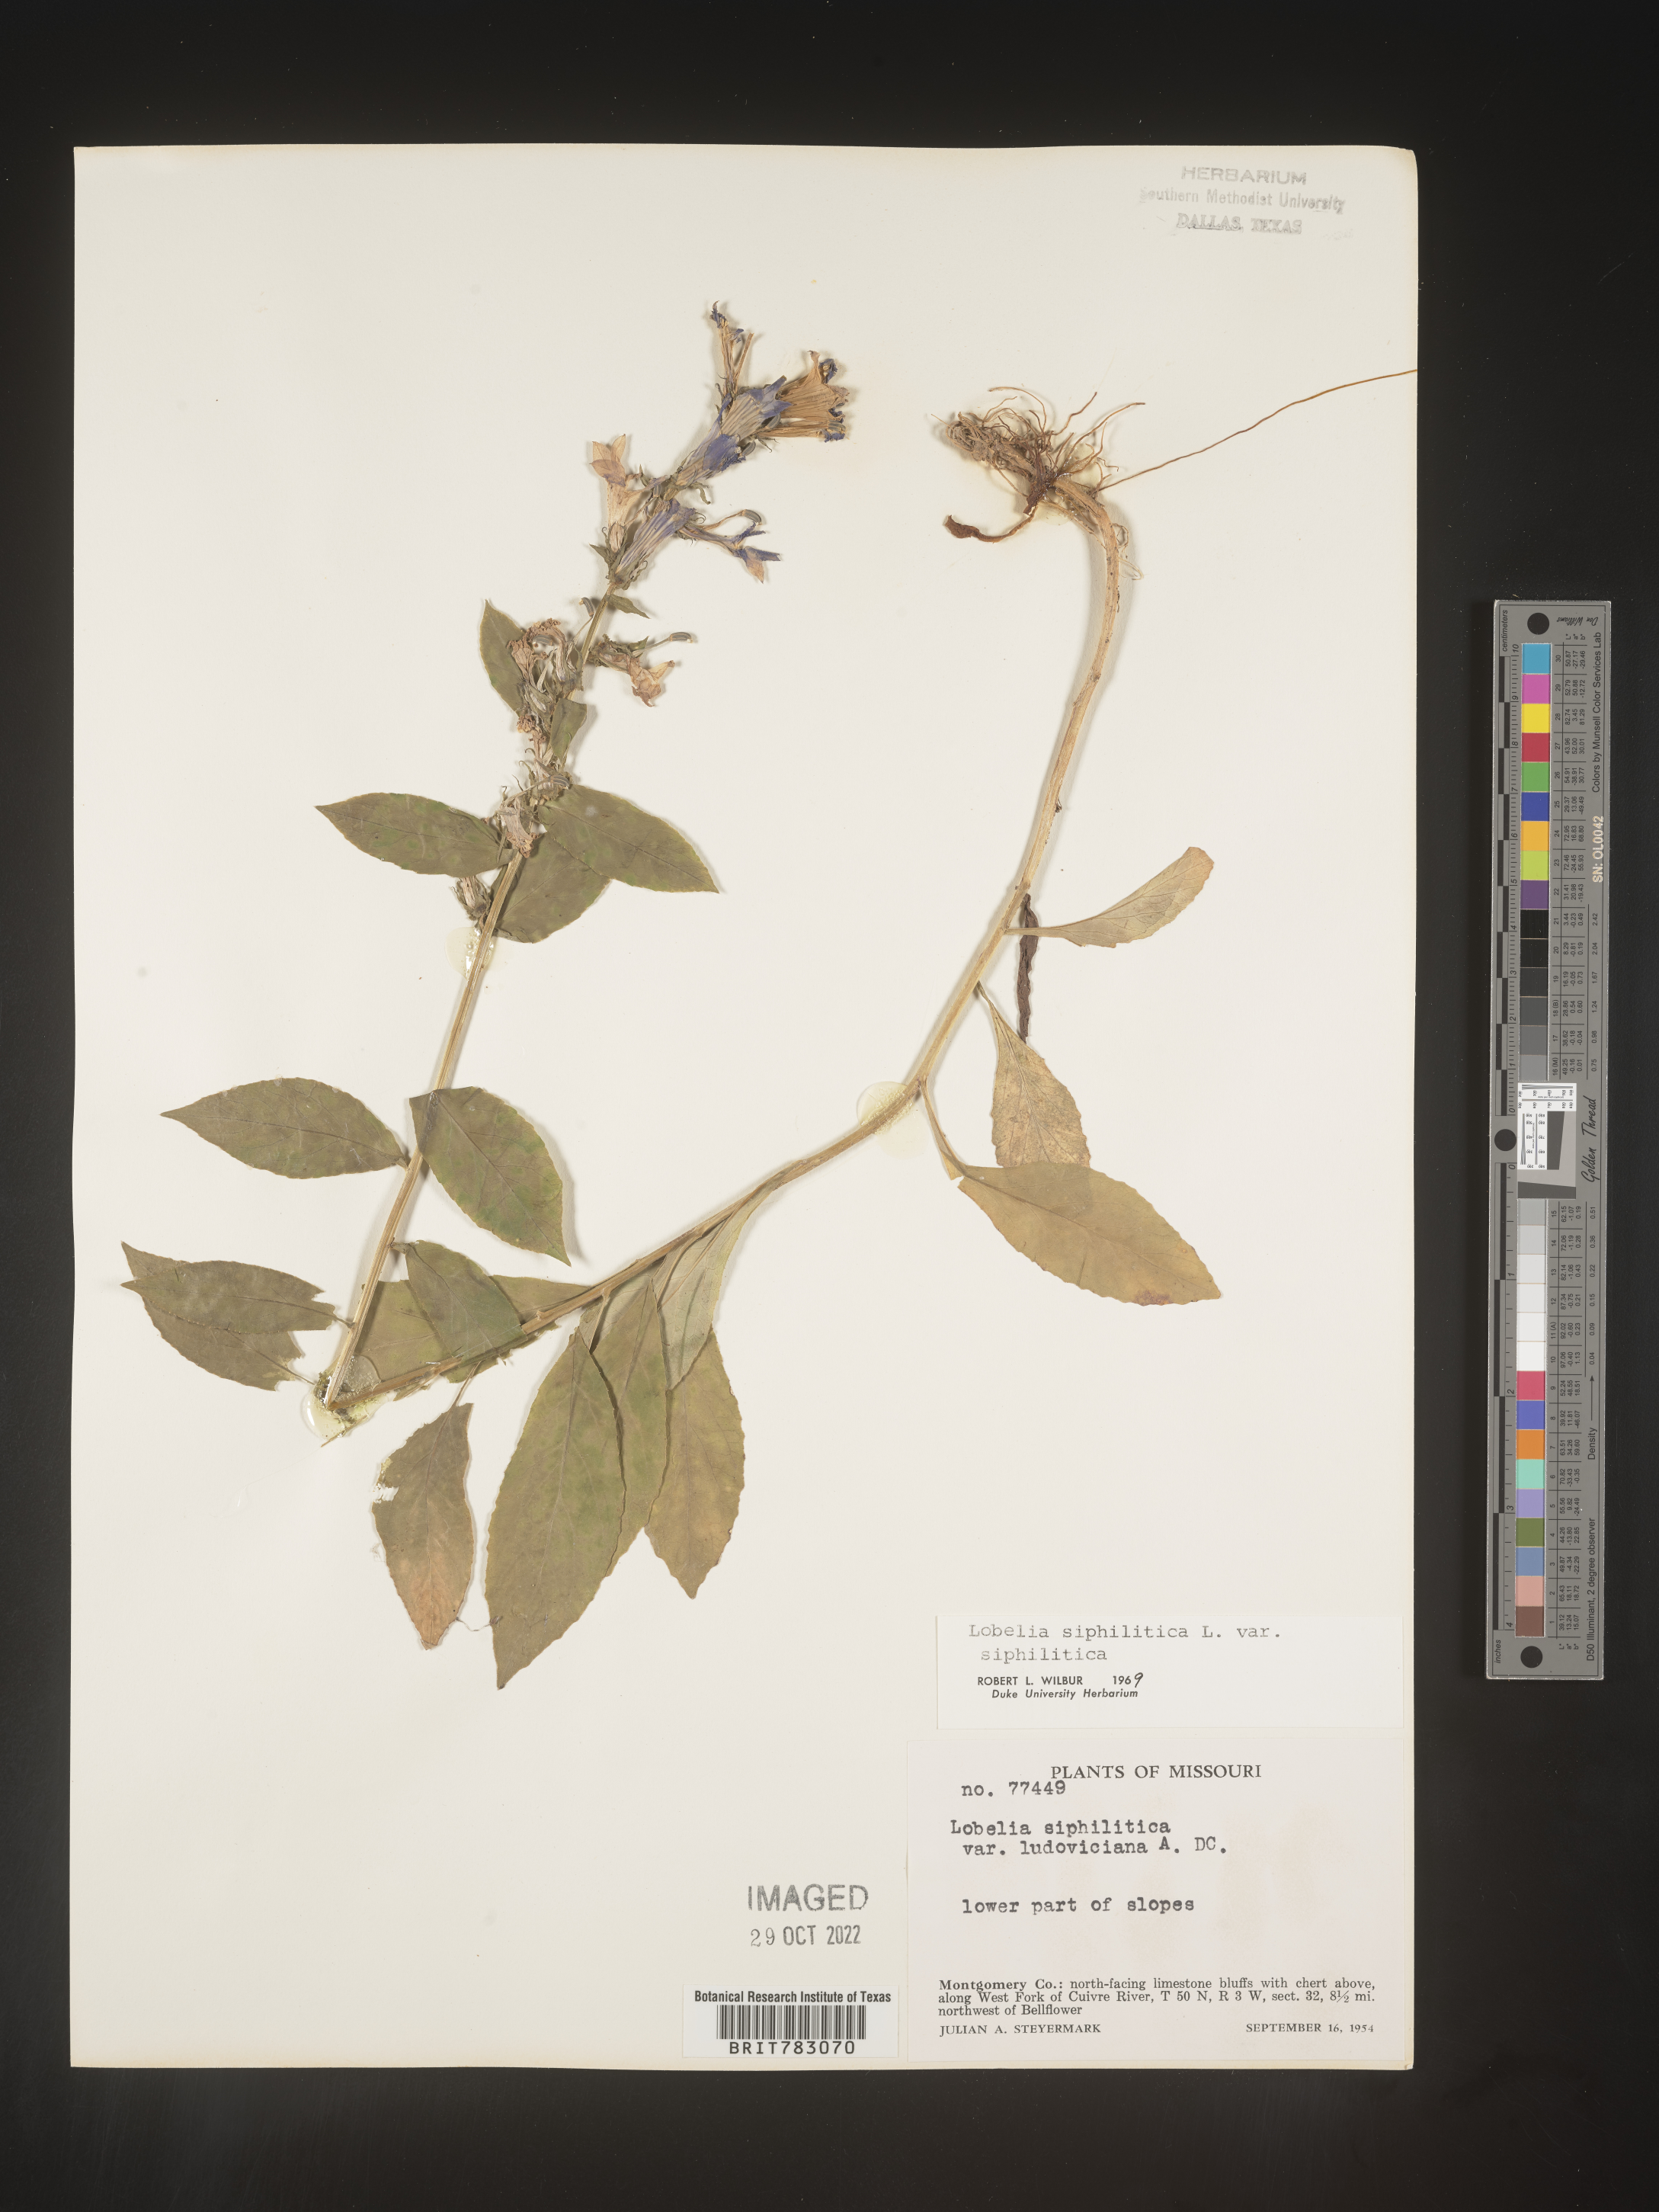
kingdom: Plantae
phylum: Tracheophyta
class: Magnoliopsida
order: Asterales
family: Campanulaceae
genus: Lobelia
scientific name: Lobelia siphilitica
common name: Great lobelia
